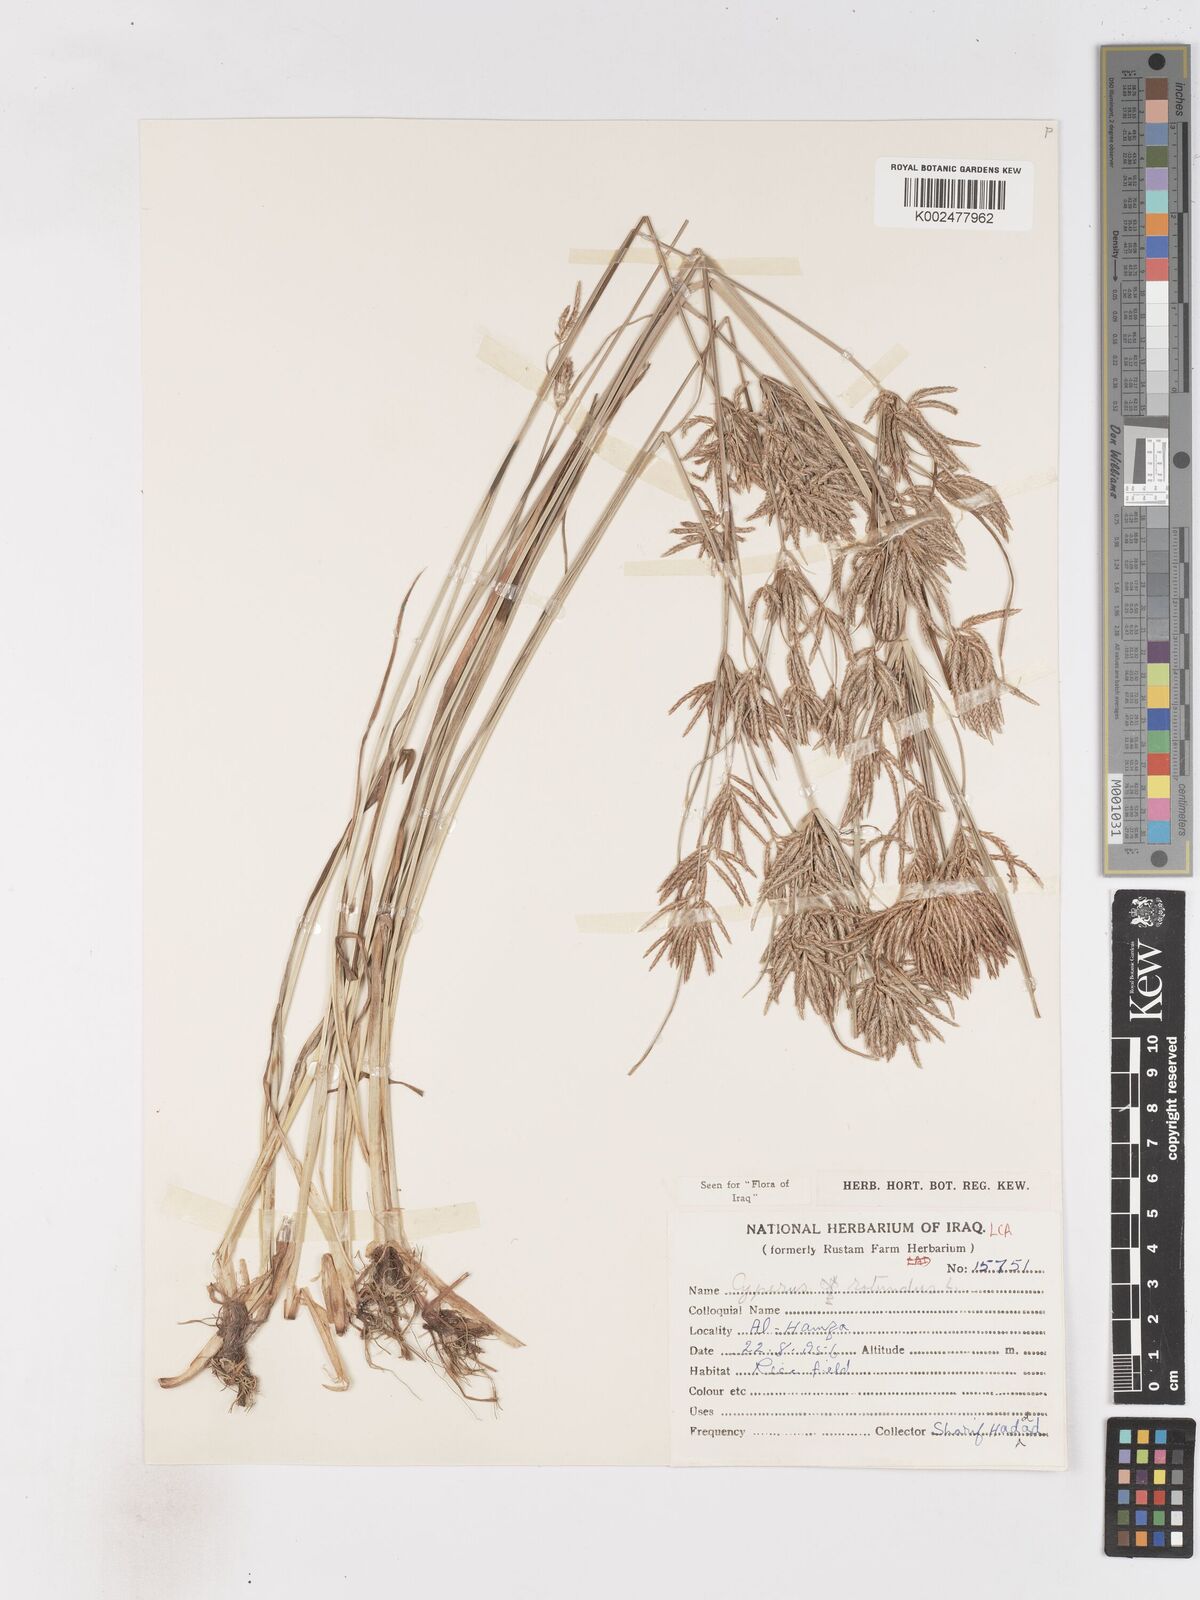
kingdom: Plantae
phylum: Tracheophyta
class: Liliopsida
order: Poales
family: Cyperaceae
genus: Cyperus
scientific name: Cyperus rotundus
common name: Nutgrass
